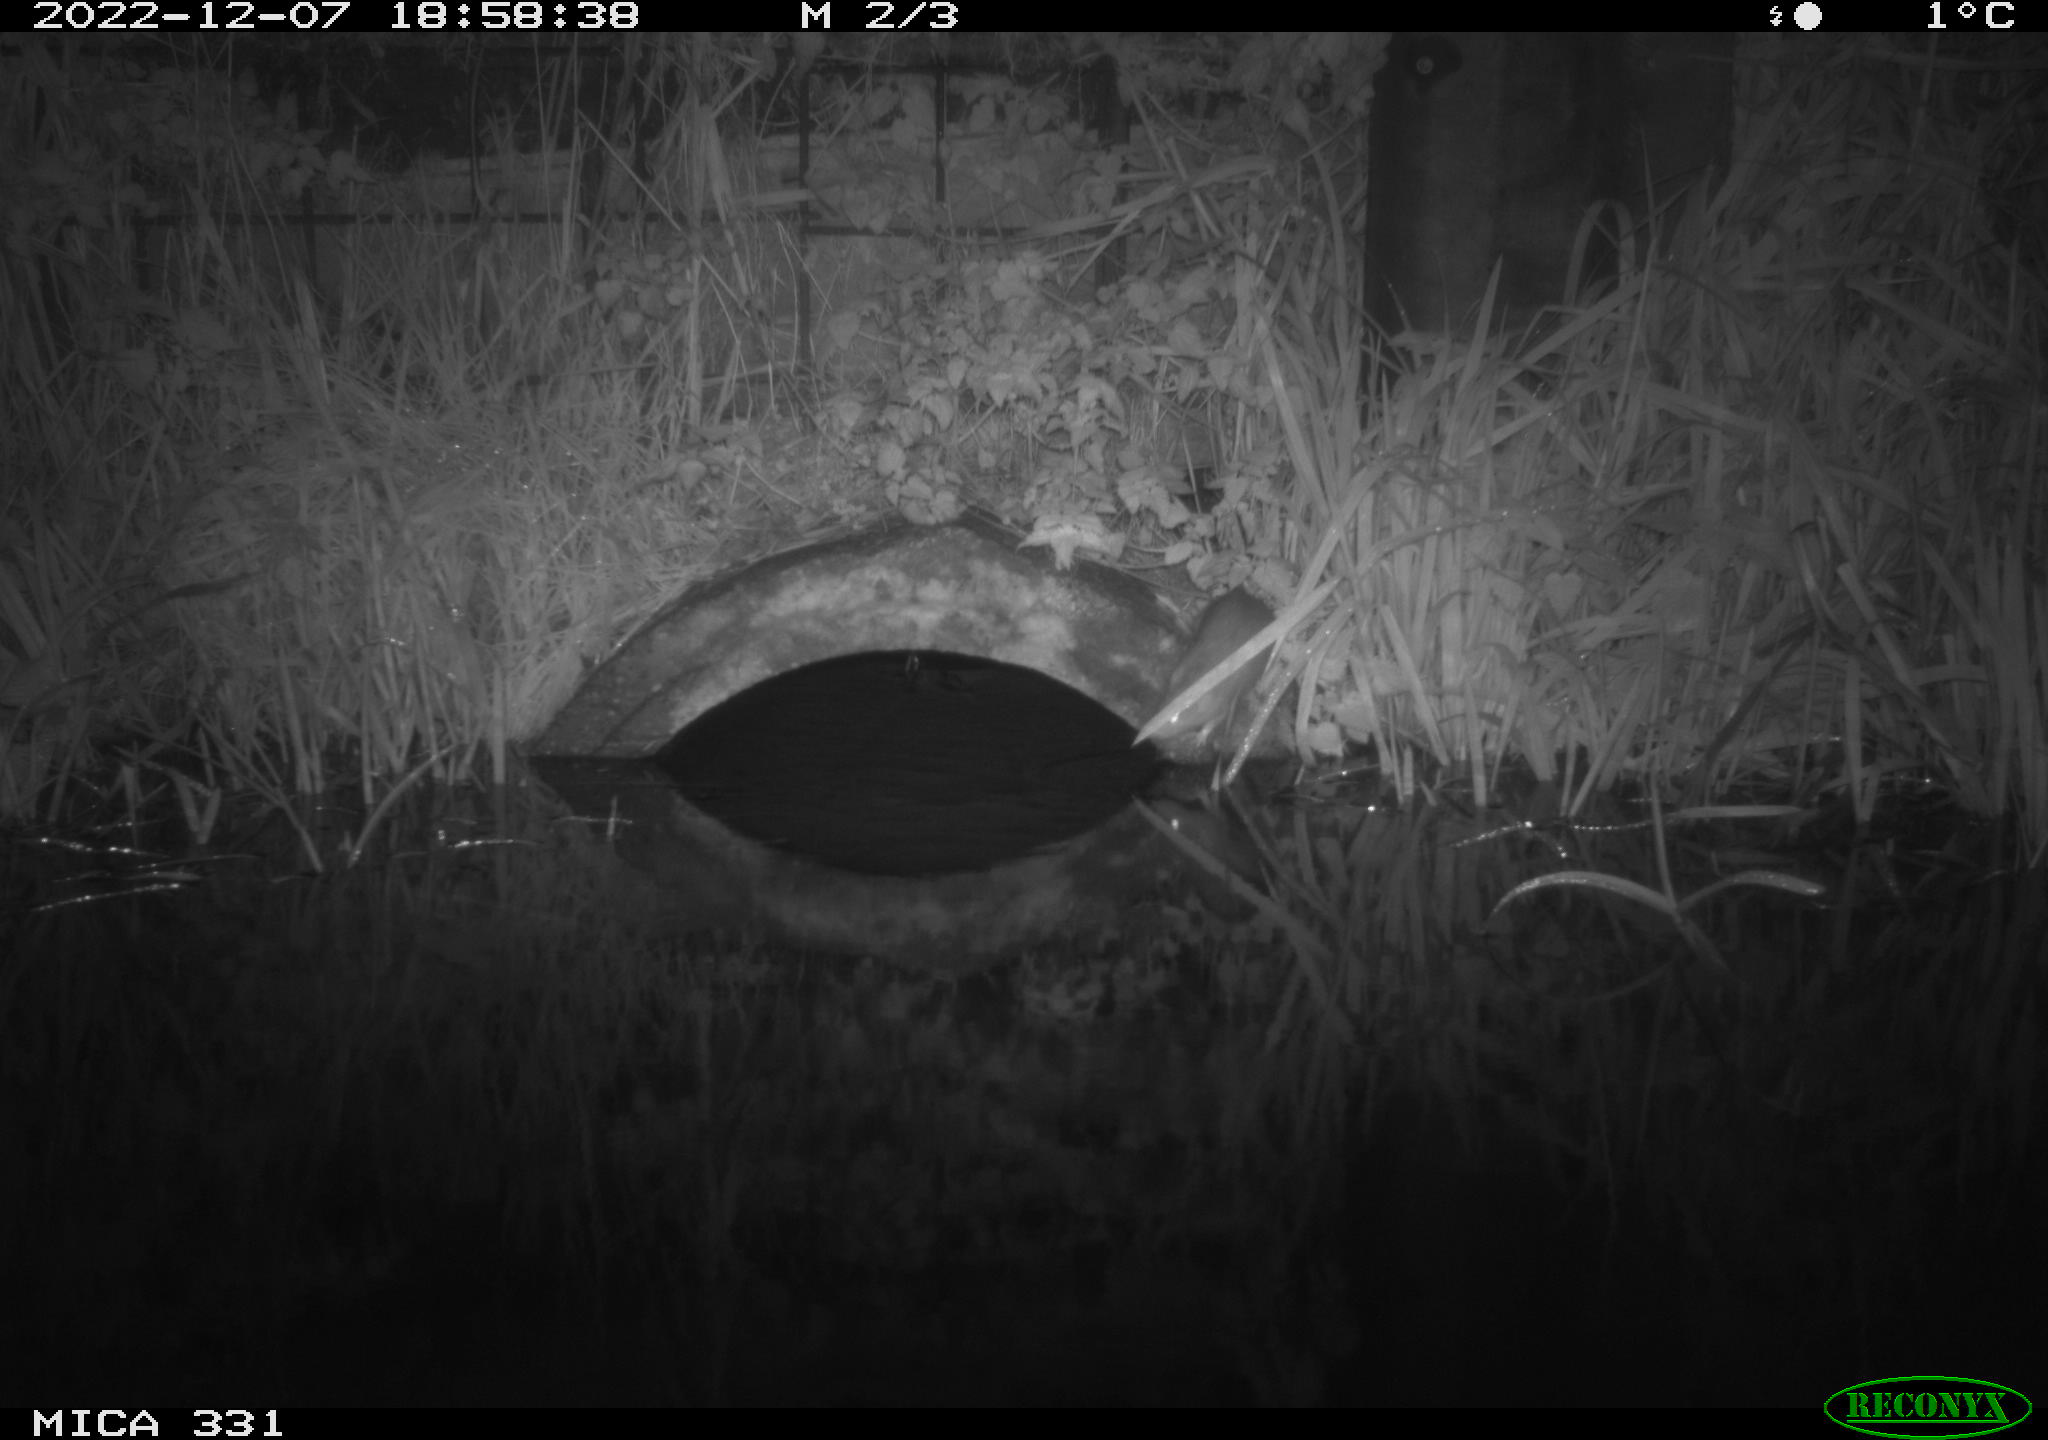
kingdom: Animalia
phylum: Chordata
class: Mammalia
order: Rodentia
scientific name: Rodentia
